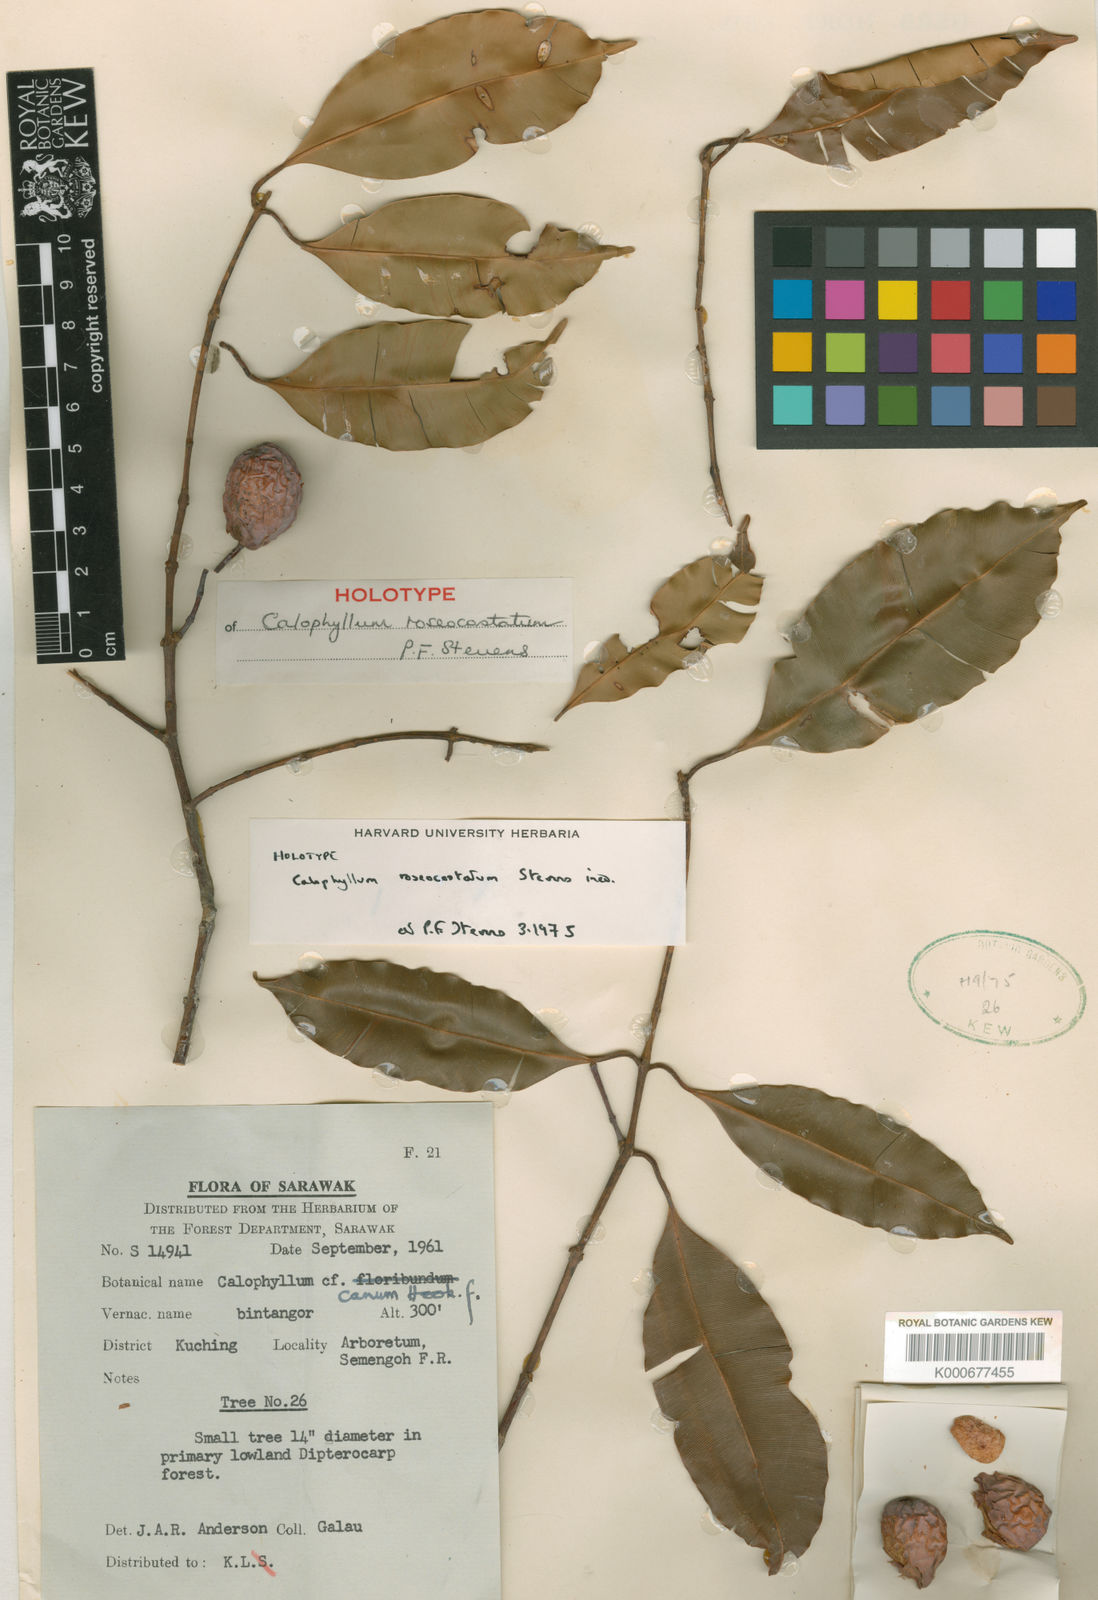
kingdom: Plantae
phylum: Tracheophyta
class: Magnoliopsida
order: Malpighiales
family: Calophyllaceae
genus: Calophyllum
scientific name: Calophyllum roseocostatum
